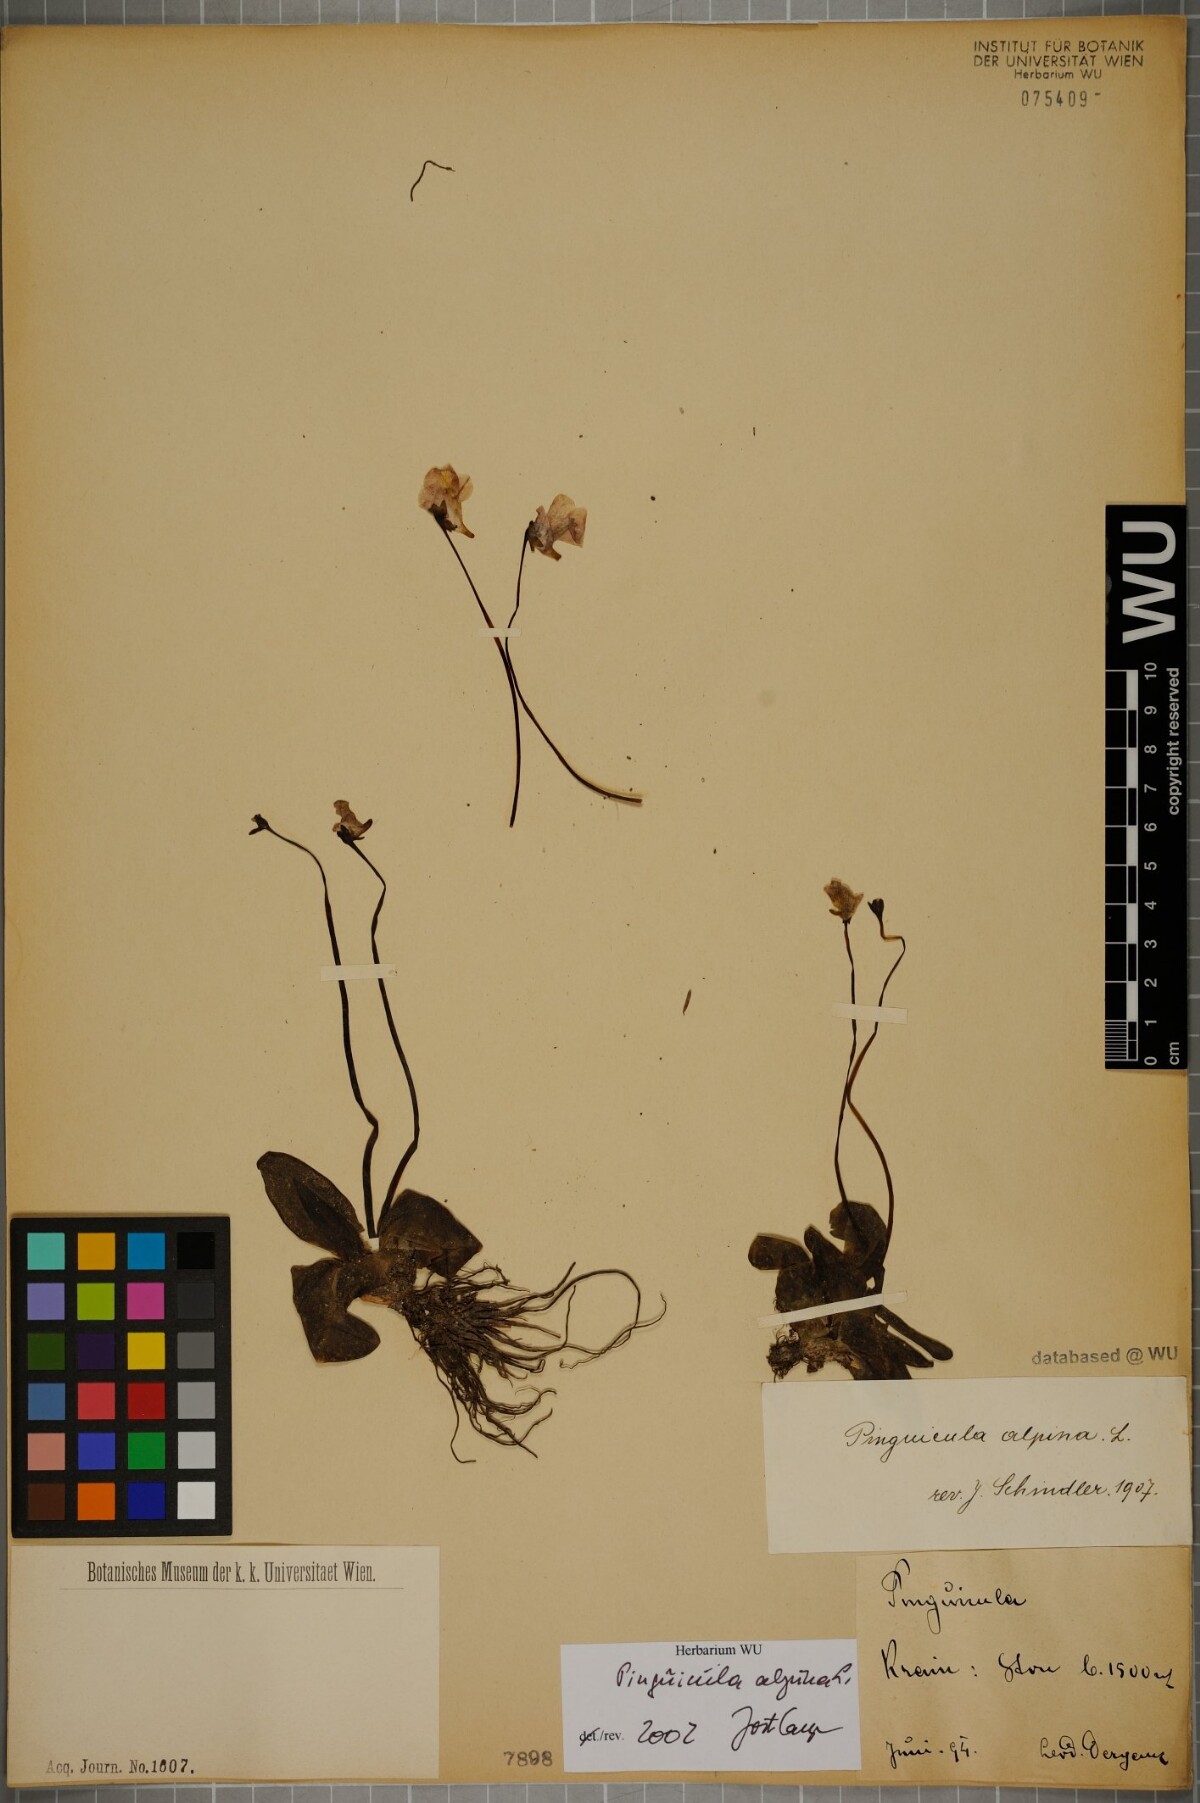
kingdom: Plantae
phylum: Tracheophyta
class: Magnoliopsida
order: Lamiales
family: Lentibulariaceae
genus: Pinguicula
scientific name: Pinguicula alpina
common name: Alpine butterwort
